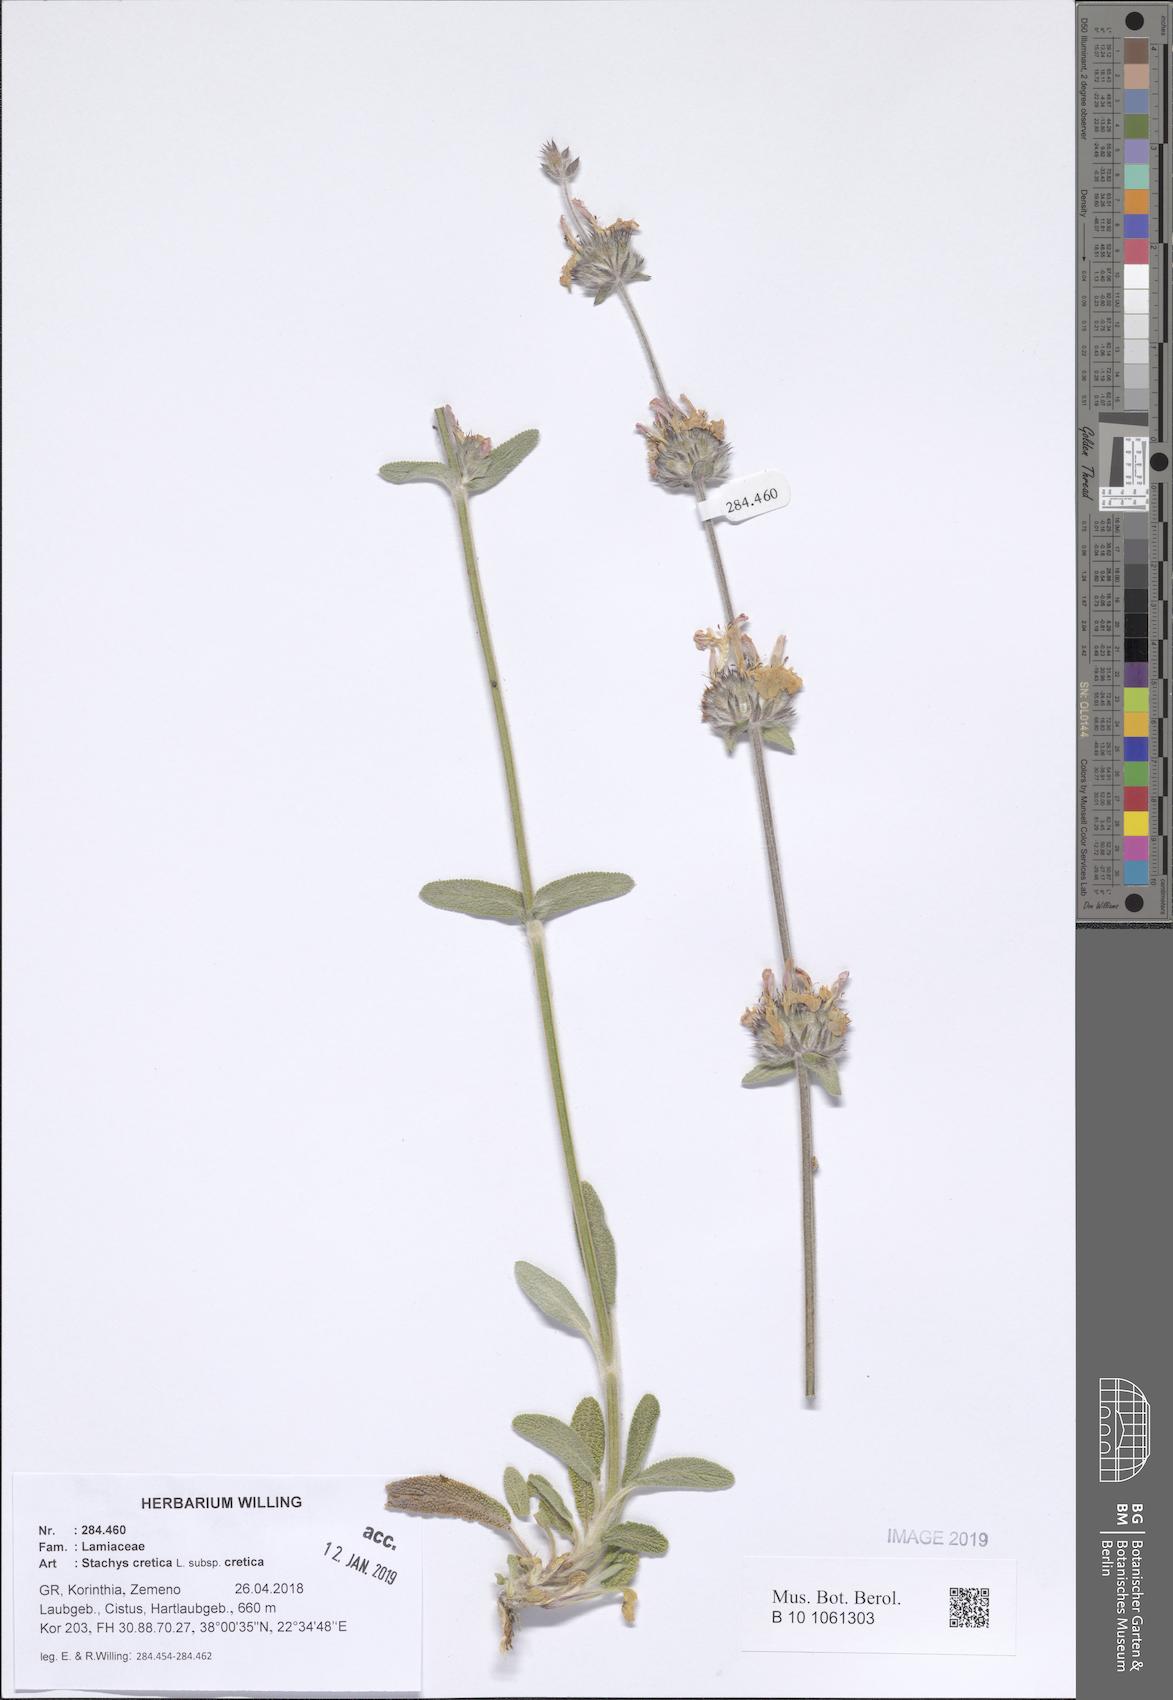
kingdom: Plantae
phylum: Tracheophyta
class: Magnoliopsida
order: Lamiales
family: Lamiaceae
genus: Stachys
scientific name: Stachys cretica
